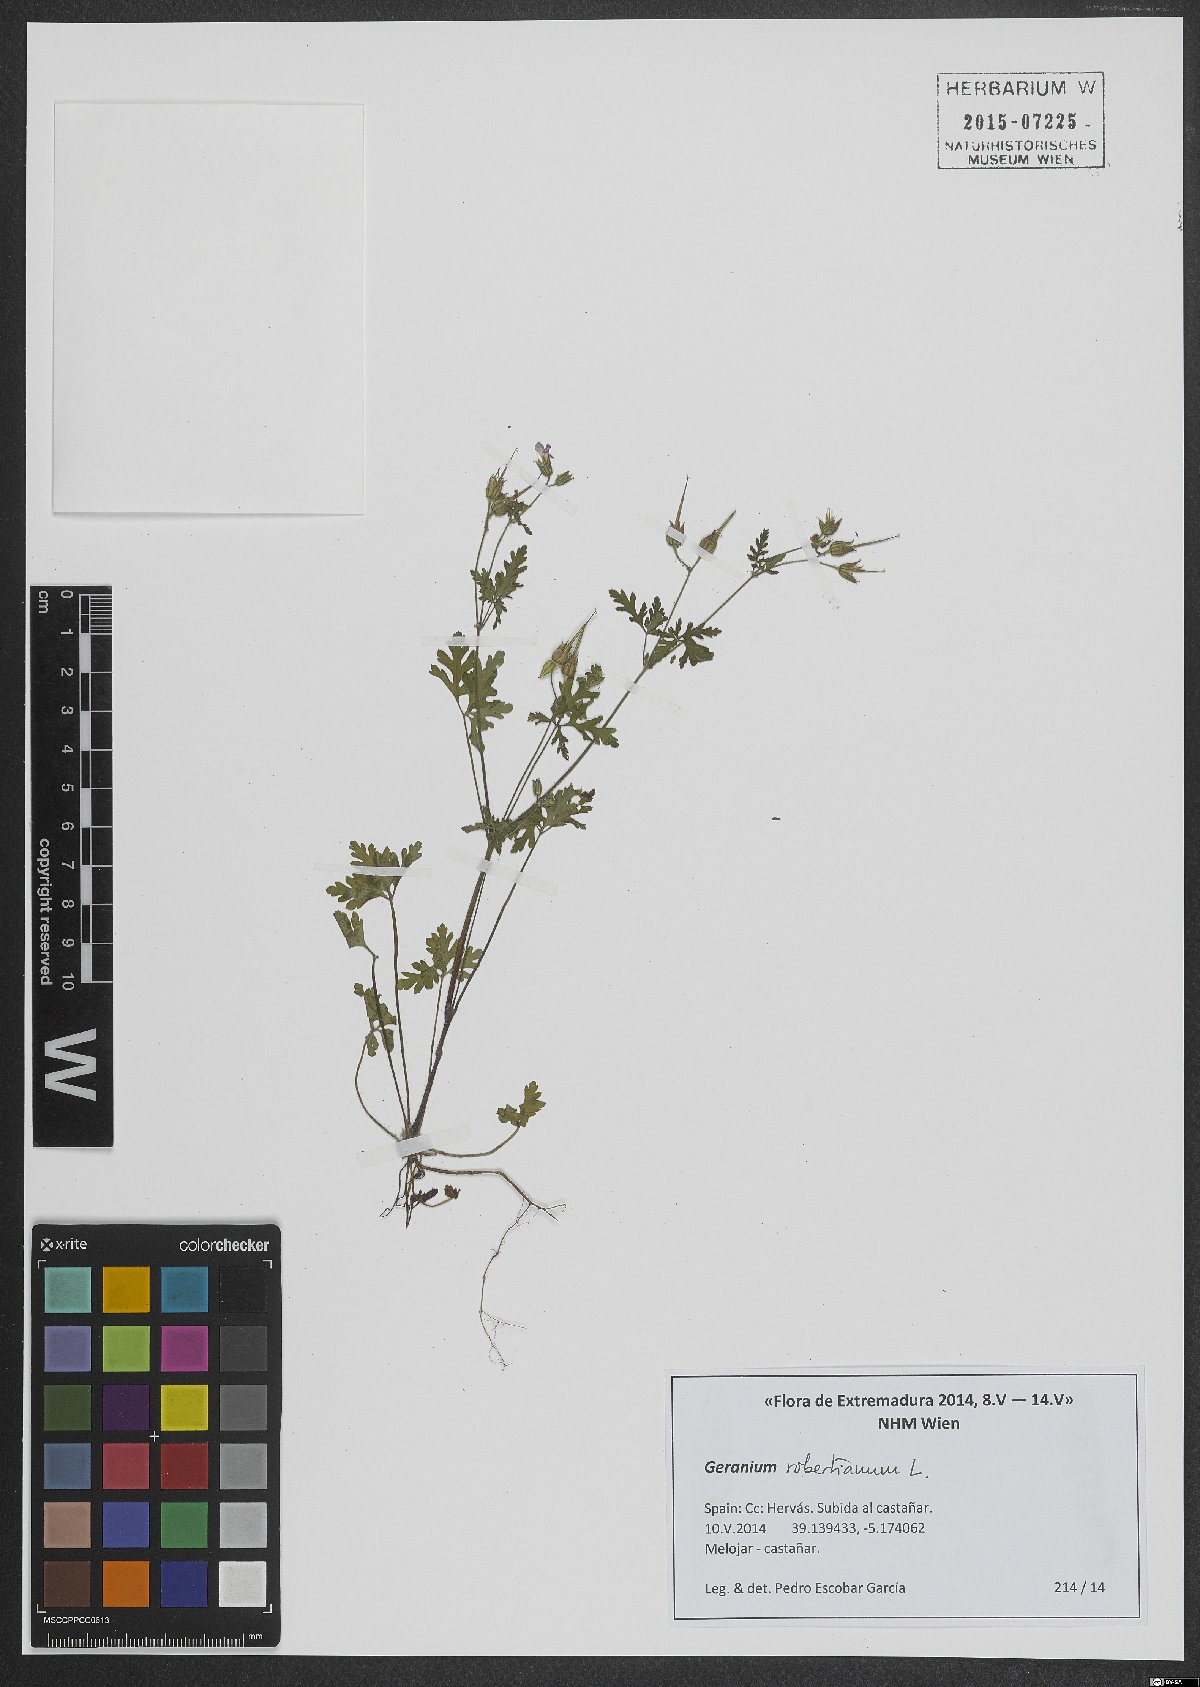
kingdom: Plantae
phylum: Tracheophyta
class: Magnoliopsida
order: Geraniales
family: Geraniaceae
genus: Geranium
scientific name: Geranium robertianum
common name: Herb-robert
